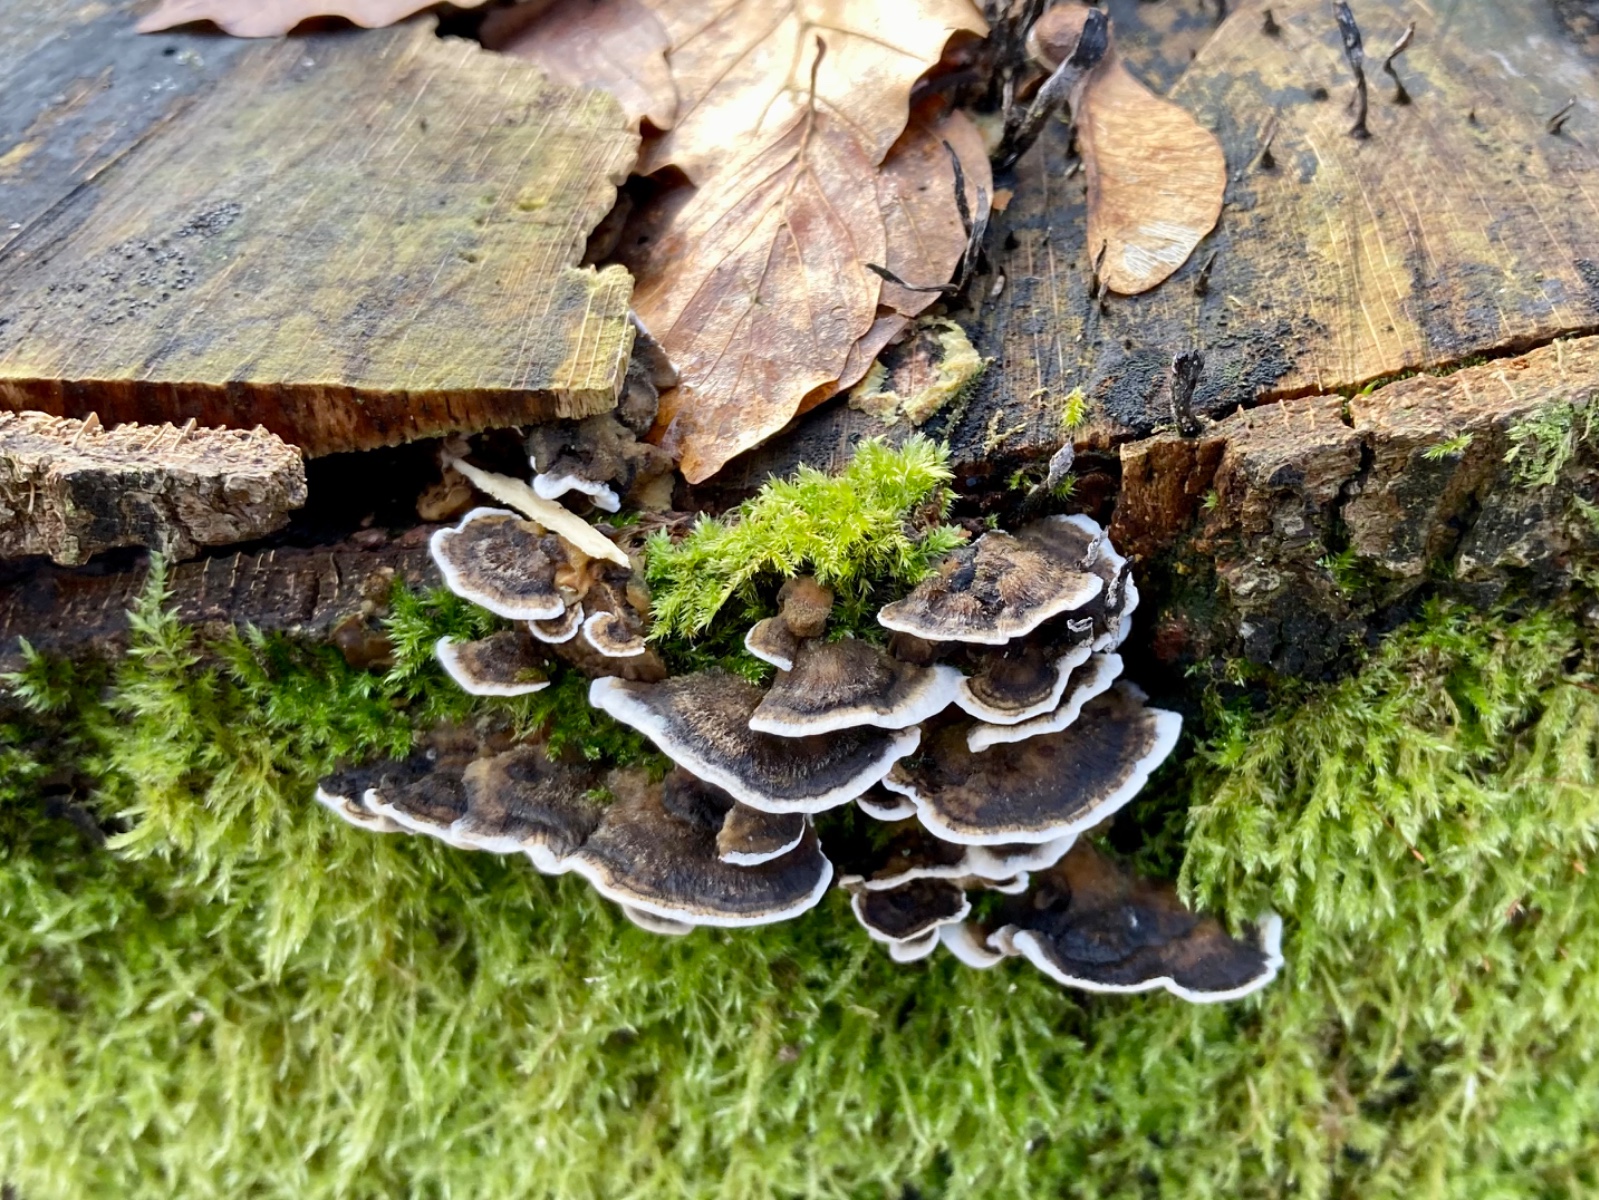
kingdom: Fungi
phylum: Basidiomycota
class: Agaricomycetes
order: Polyporales
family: Phanerochaetaceae
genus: Bjerkandera
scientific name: Bjerkandera adusta
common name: sveden sodporesvamp
